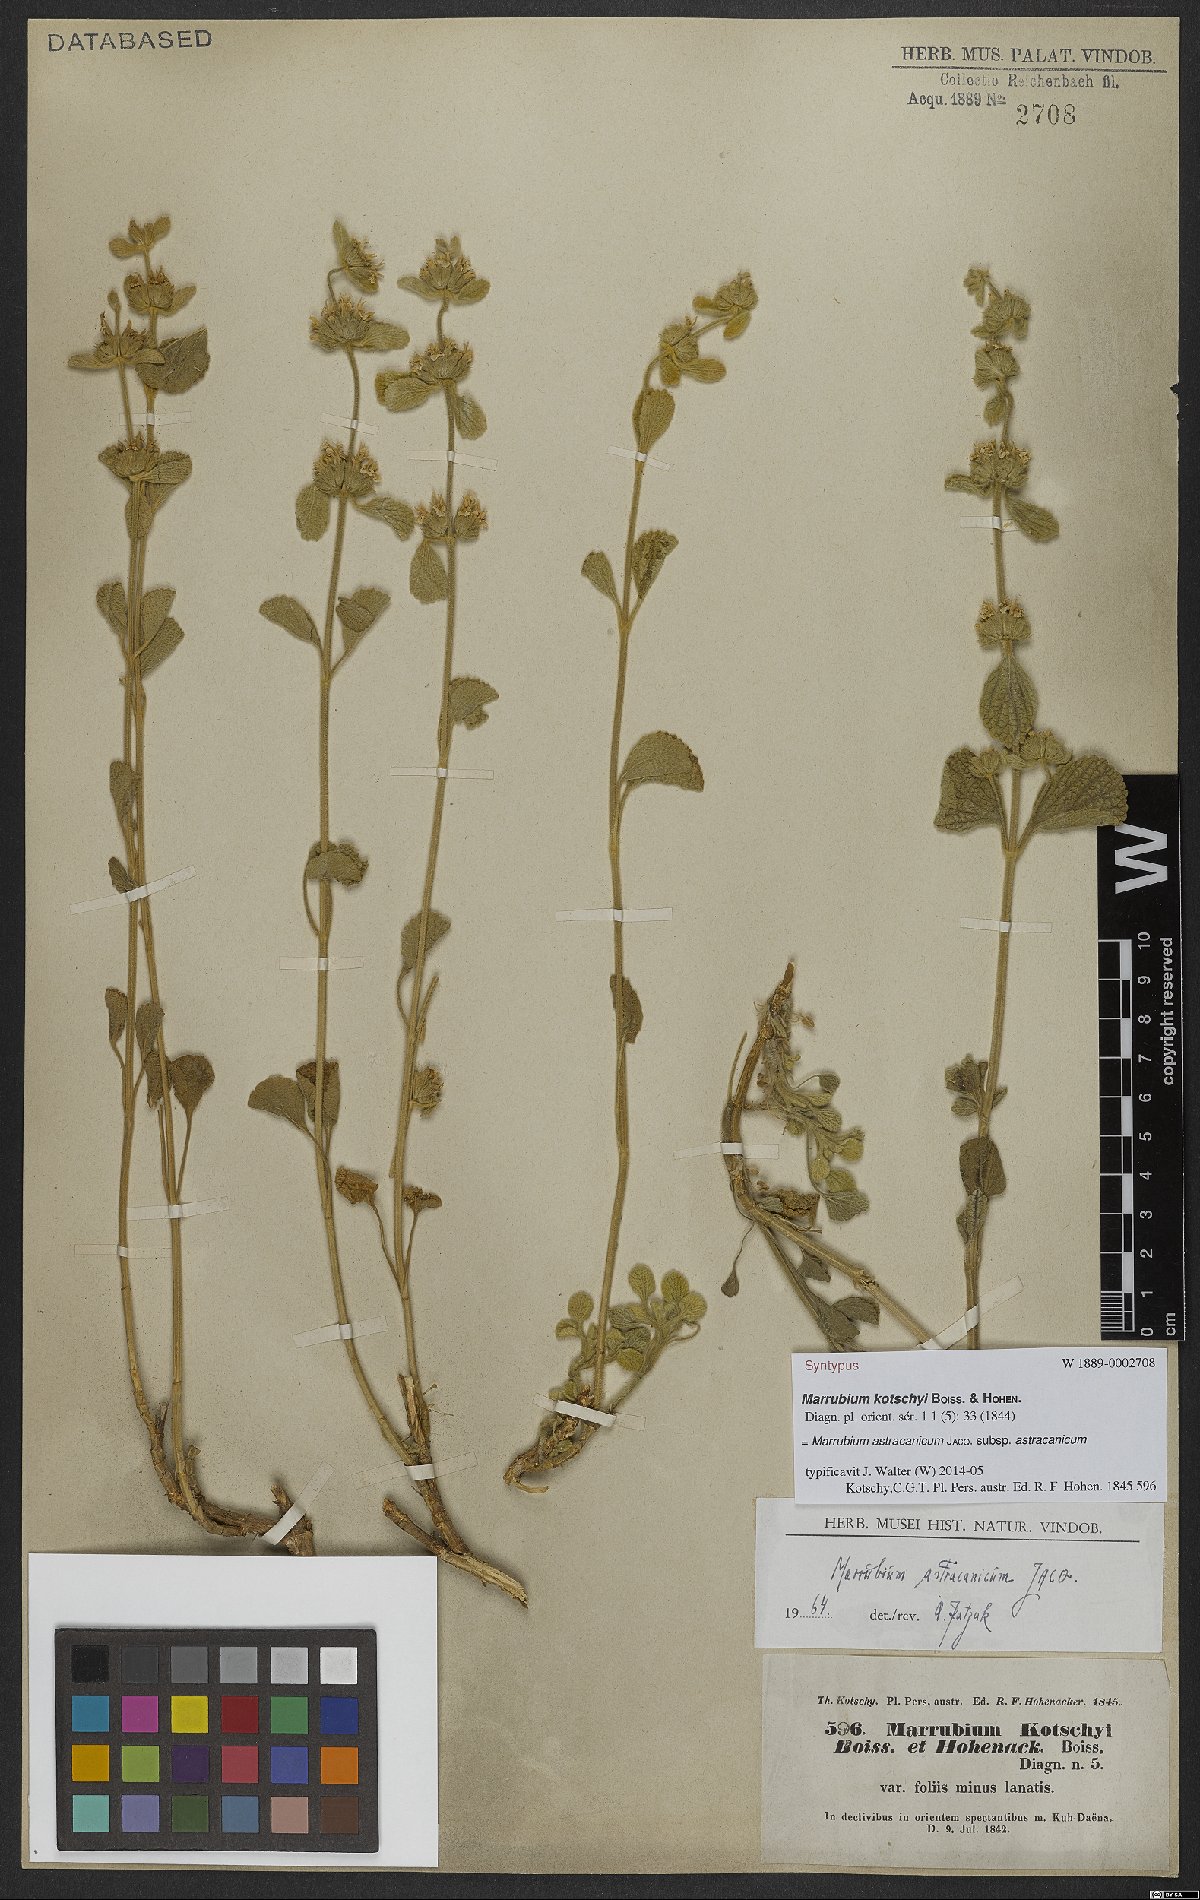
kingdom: Plantae
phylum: Tracheophyta
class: Magnoliopsida
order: Lamiales
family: Lamiaceae
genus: Marrubium
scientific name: Marrubium astracanicum
